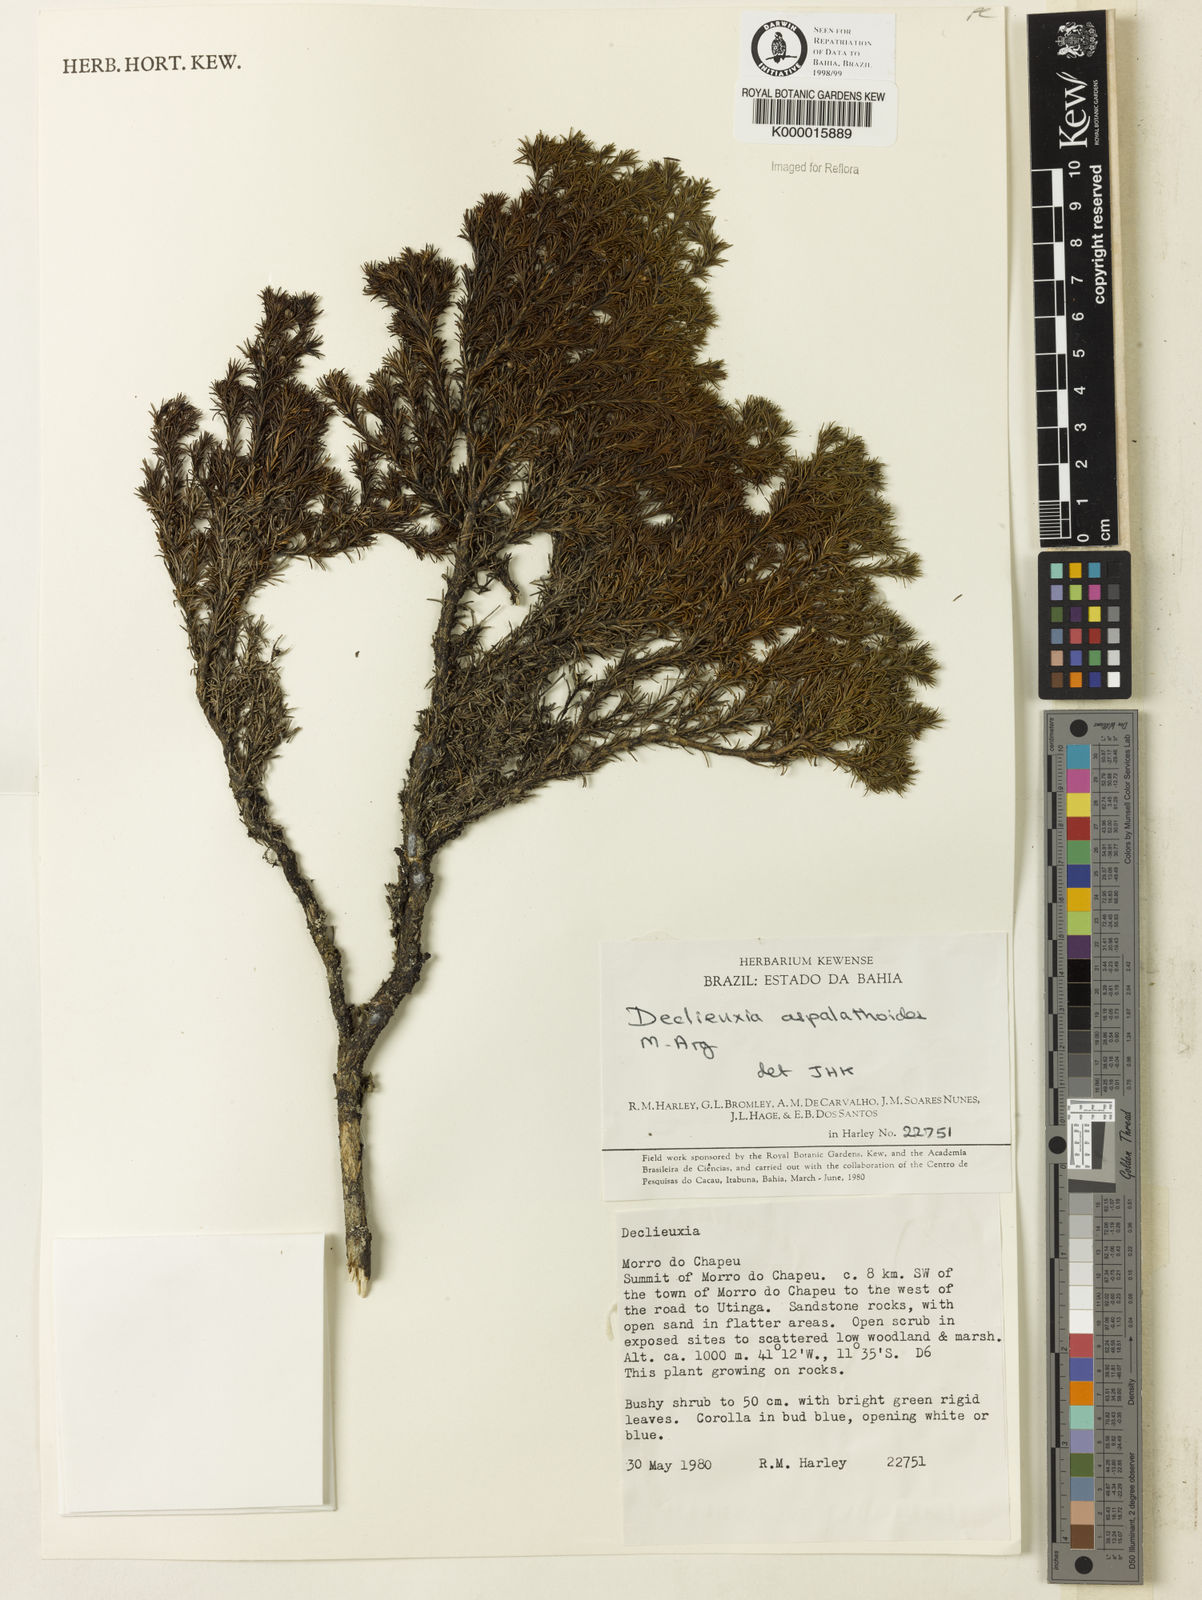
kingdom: Plantae
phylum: Tracheophyta
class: Magnoliopsida
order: Gentianales
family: Rubiaceae
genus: Declieuxia
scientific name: Declieuxia aspalathoides
